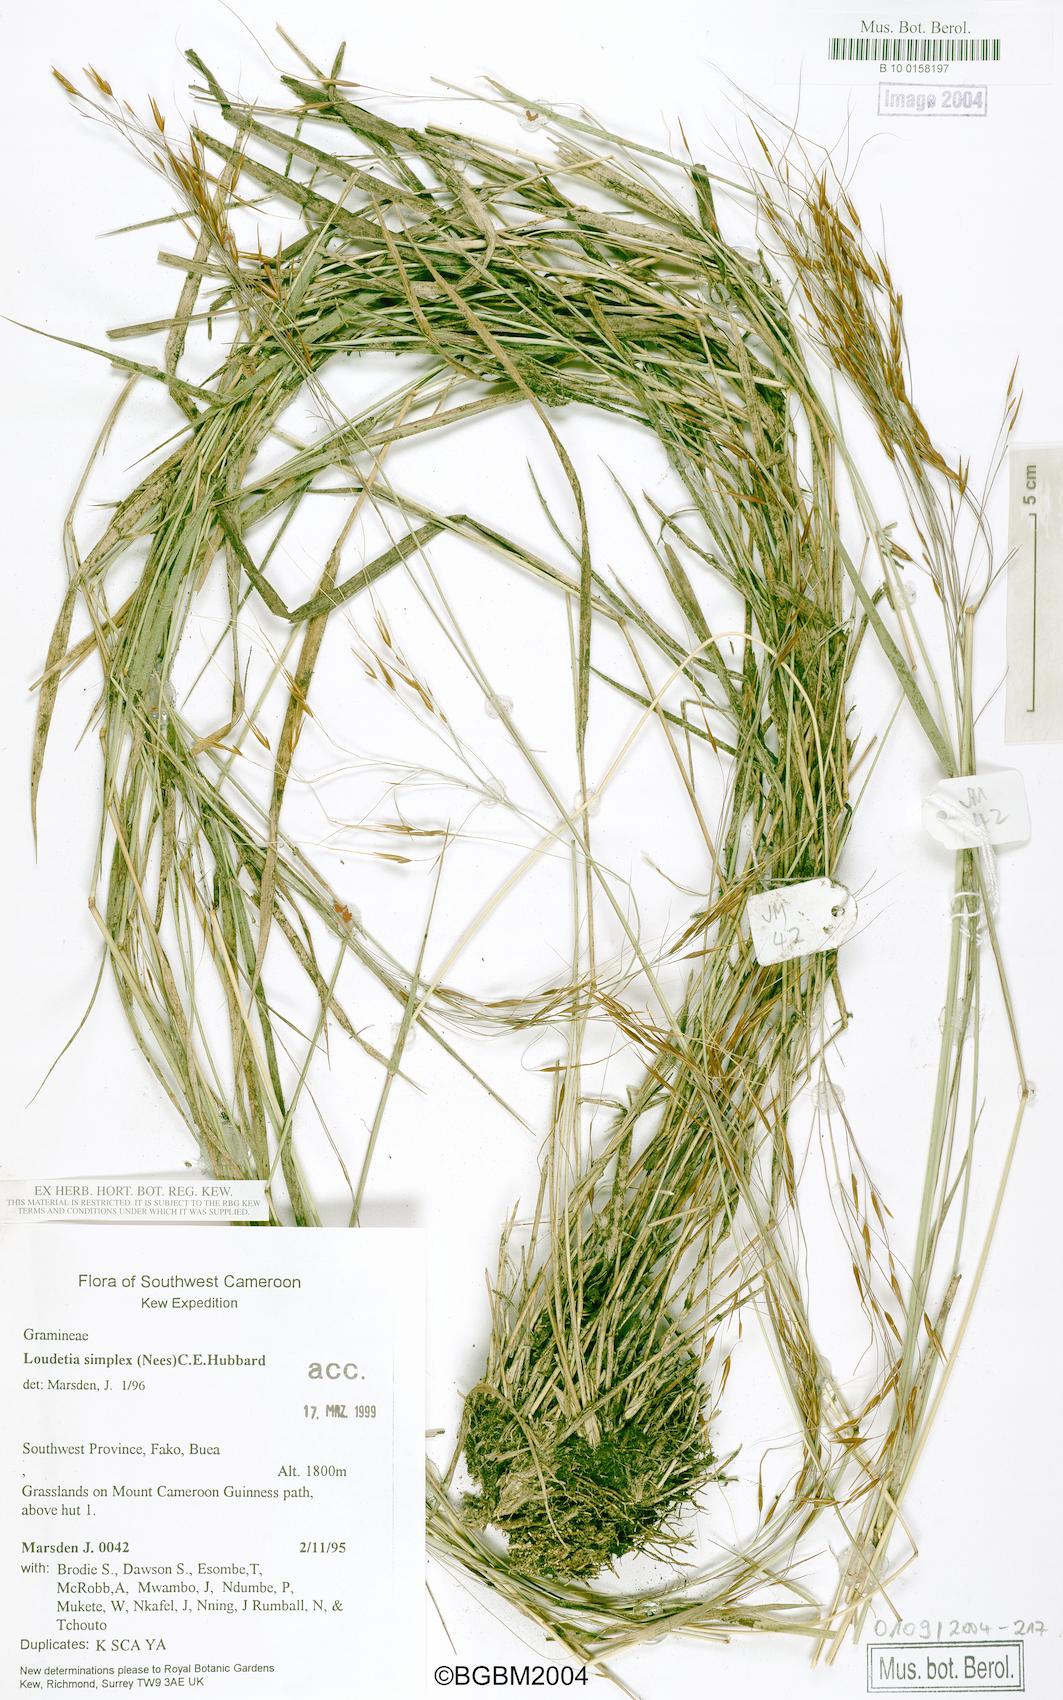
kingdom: Plantae
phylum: Tracheophyta
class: Liliopsida
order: Poales
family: Poaceae
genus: Loudetia
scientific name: Loudetia simplex
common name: Common russet grass
